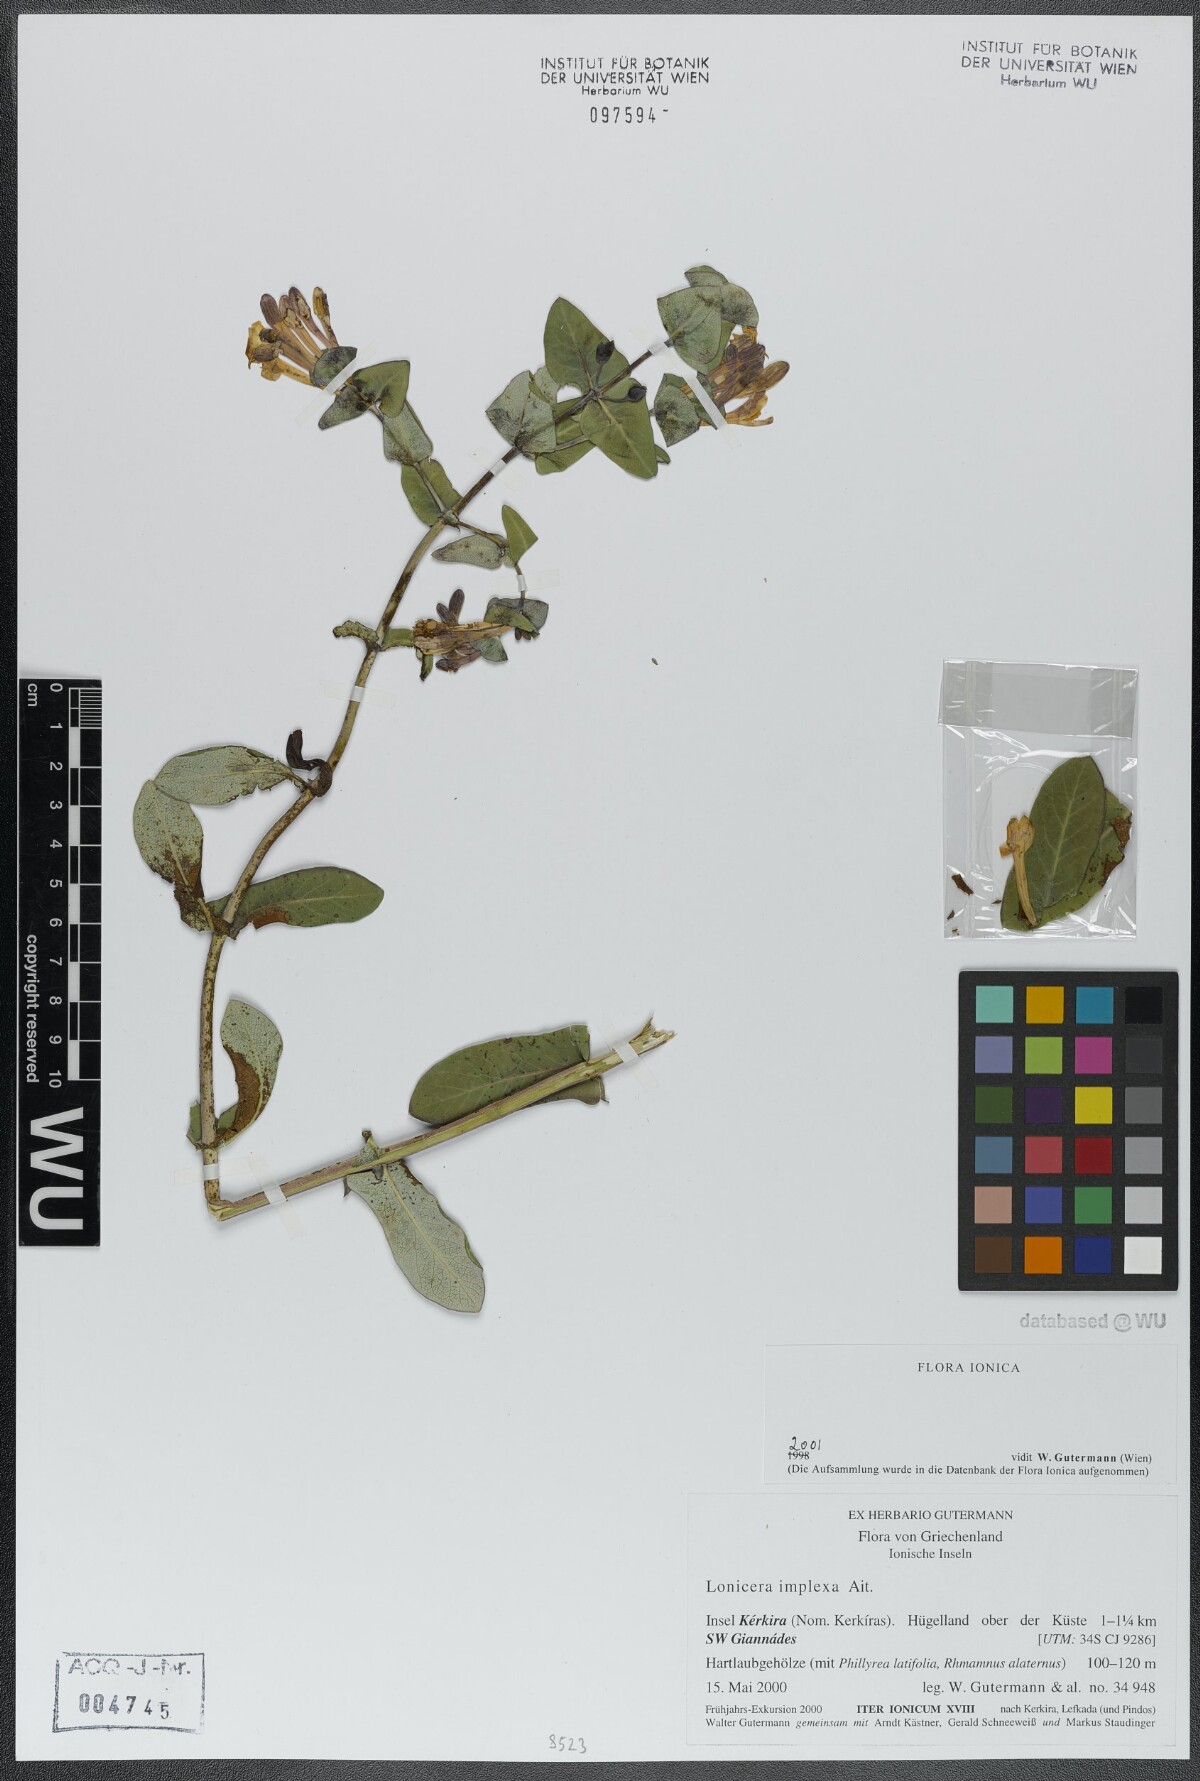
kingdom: Plantae
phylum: Tracheophyta
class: Magnoliopsida
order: Dipsacales
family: Caprifoliaceae
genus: Lonicera
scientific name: Lonicera implexa
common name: Minorca honeysuckle
